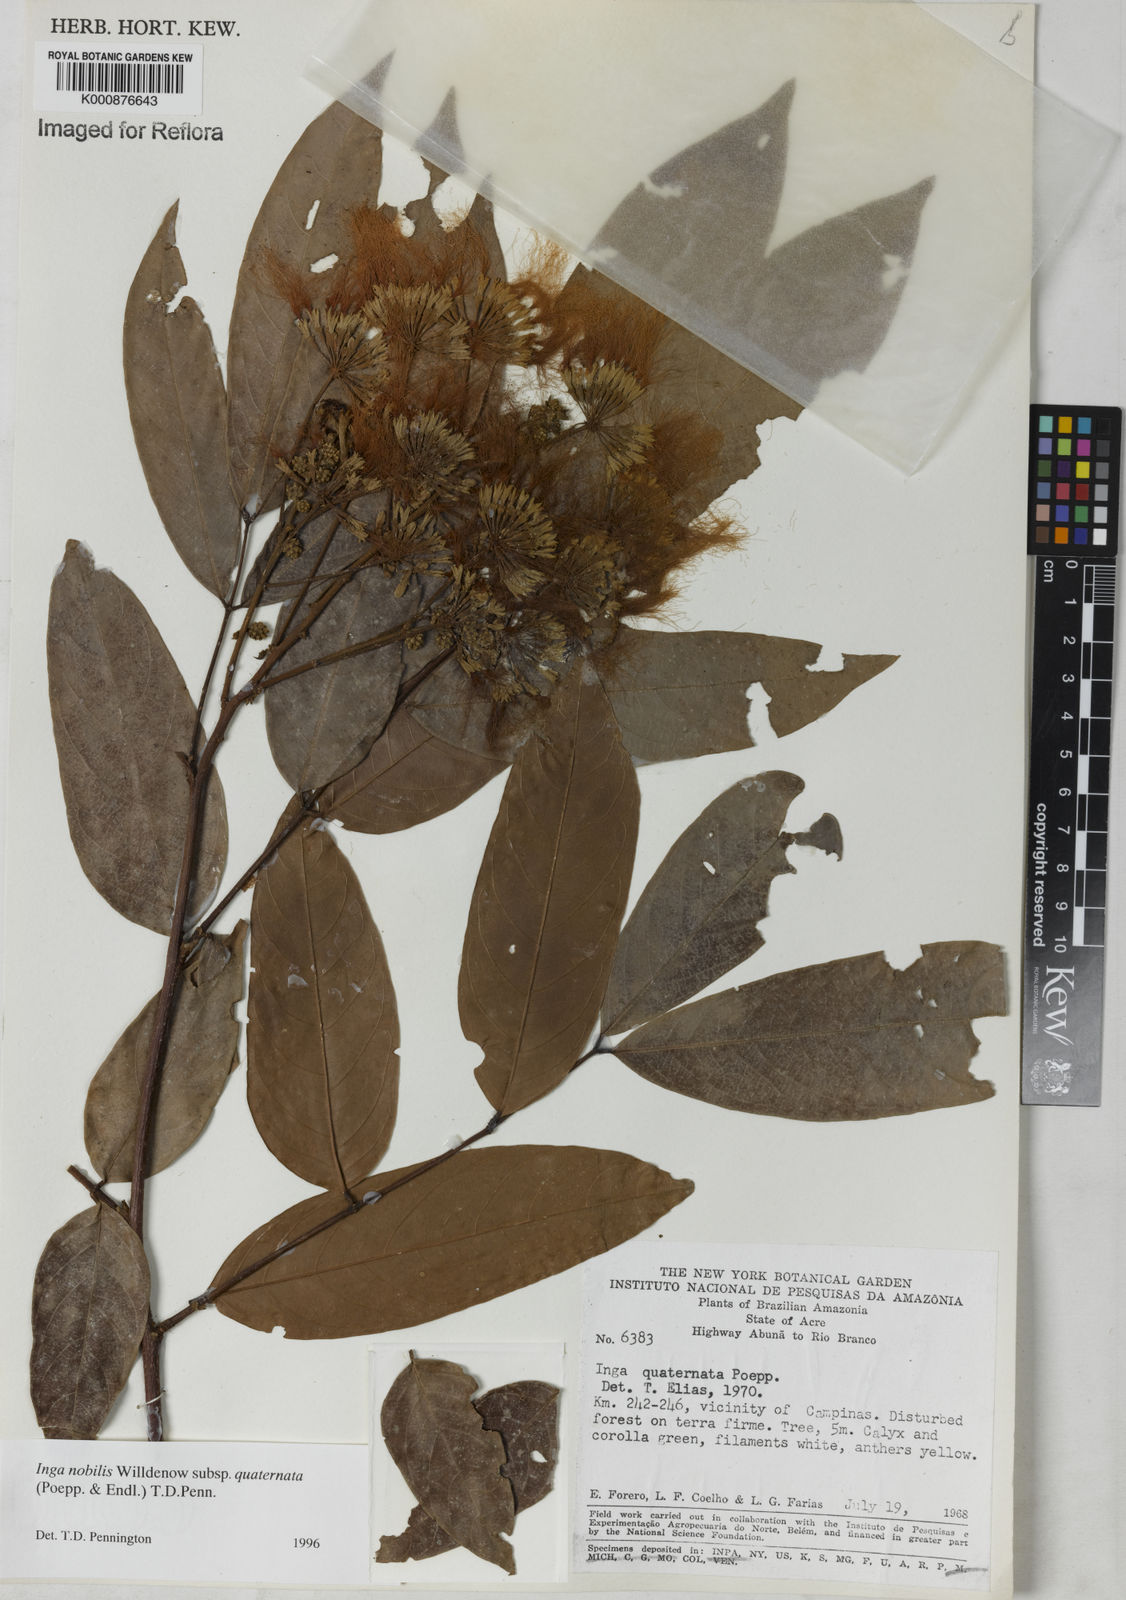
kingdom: Plantae
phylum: Tracheophyta
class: Magnoliopsida
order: Fabales
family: Fabaceae
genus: Inga
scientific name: Inga nobilis
